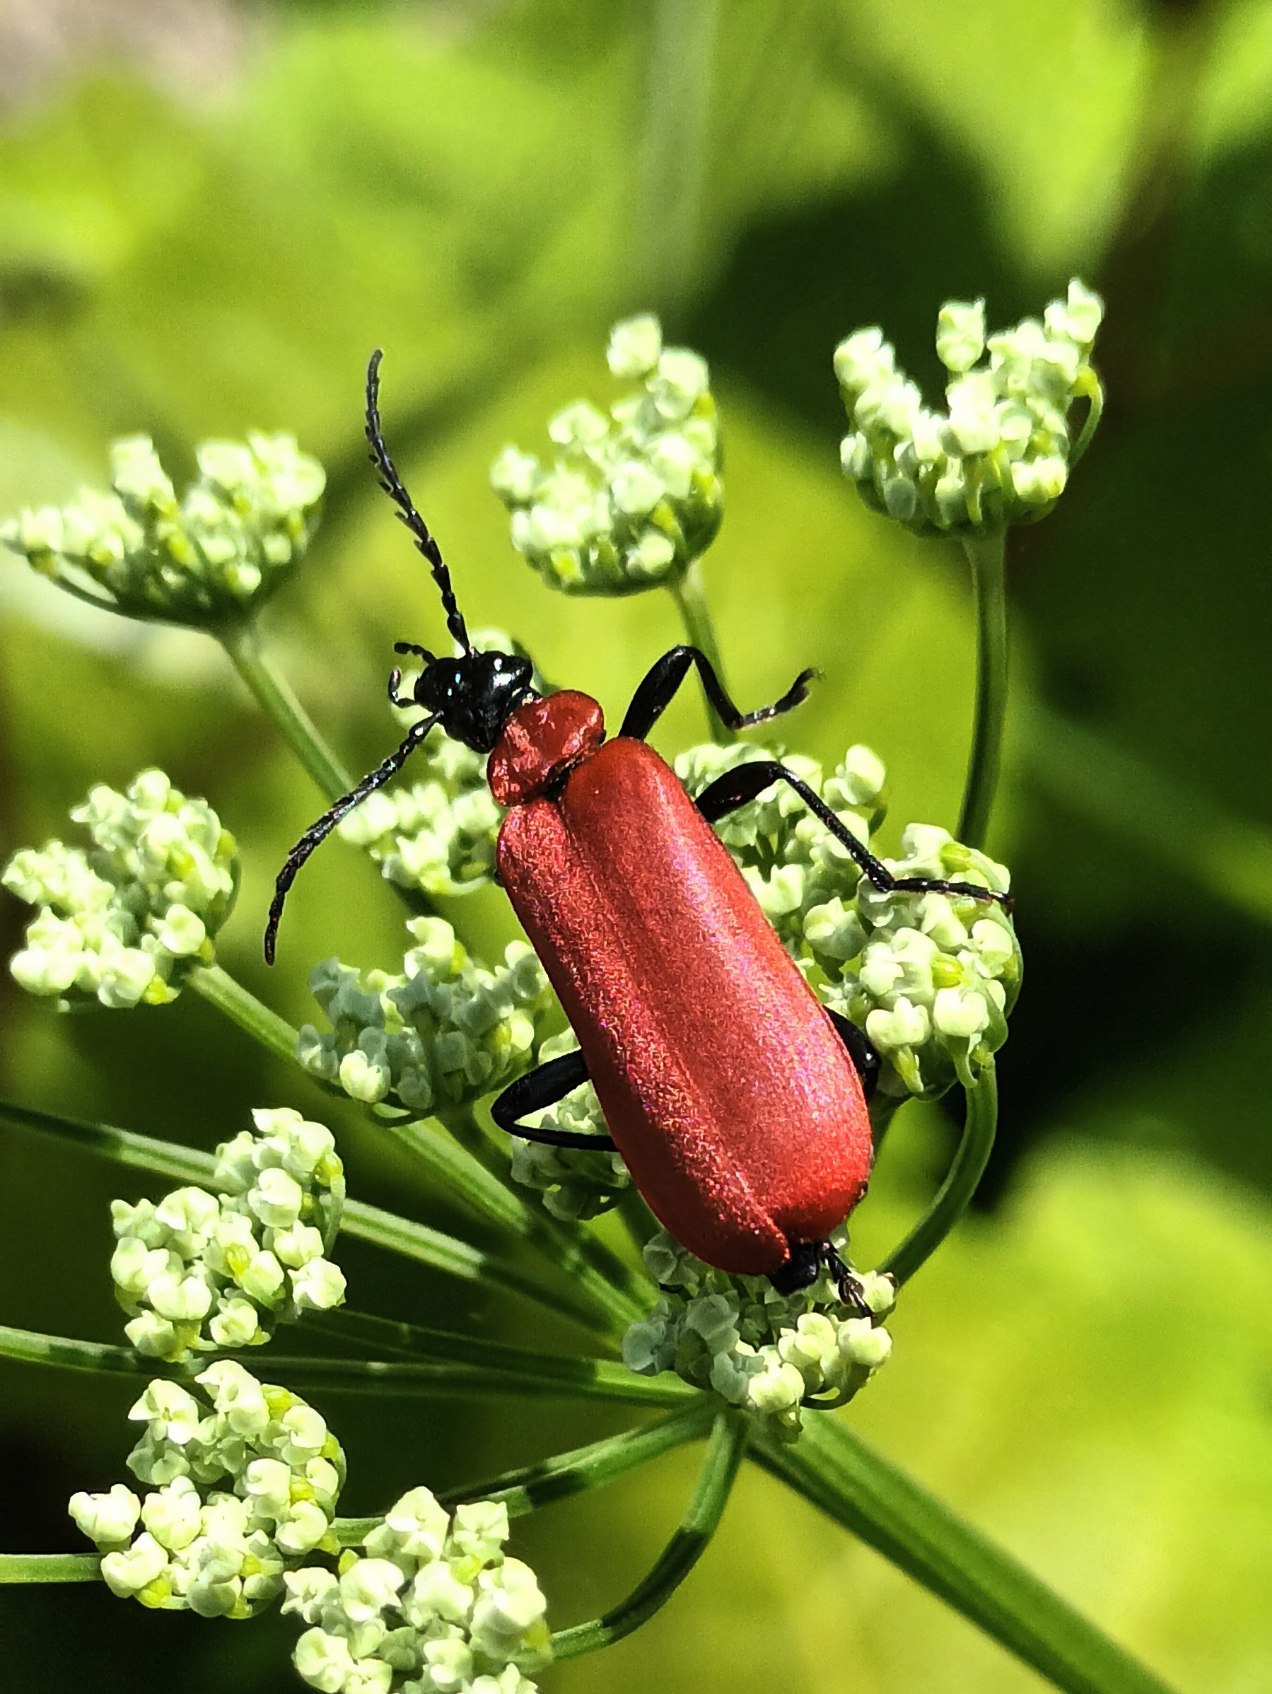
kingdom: Animalia
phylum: Arthropoda
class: Insecta
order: Coleoptera
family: Pyrochroidae
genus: Pyrochroa
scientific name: Pyrochroa coccinea
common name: Sorthovedet kardinalbille
